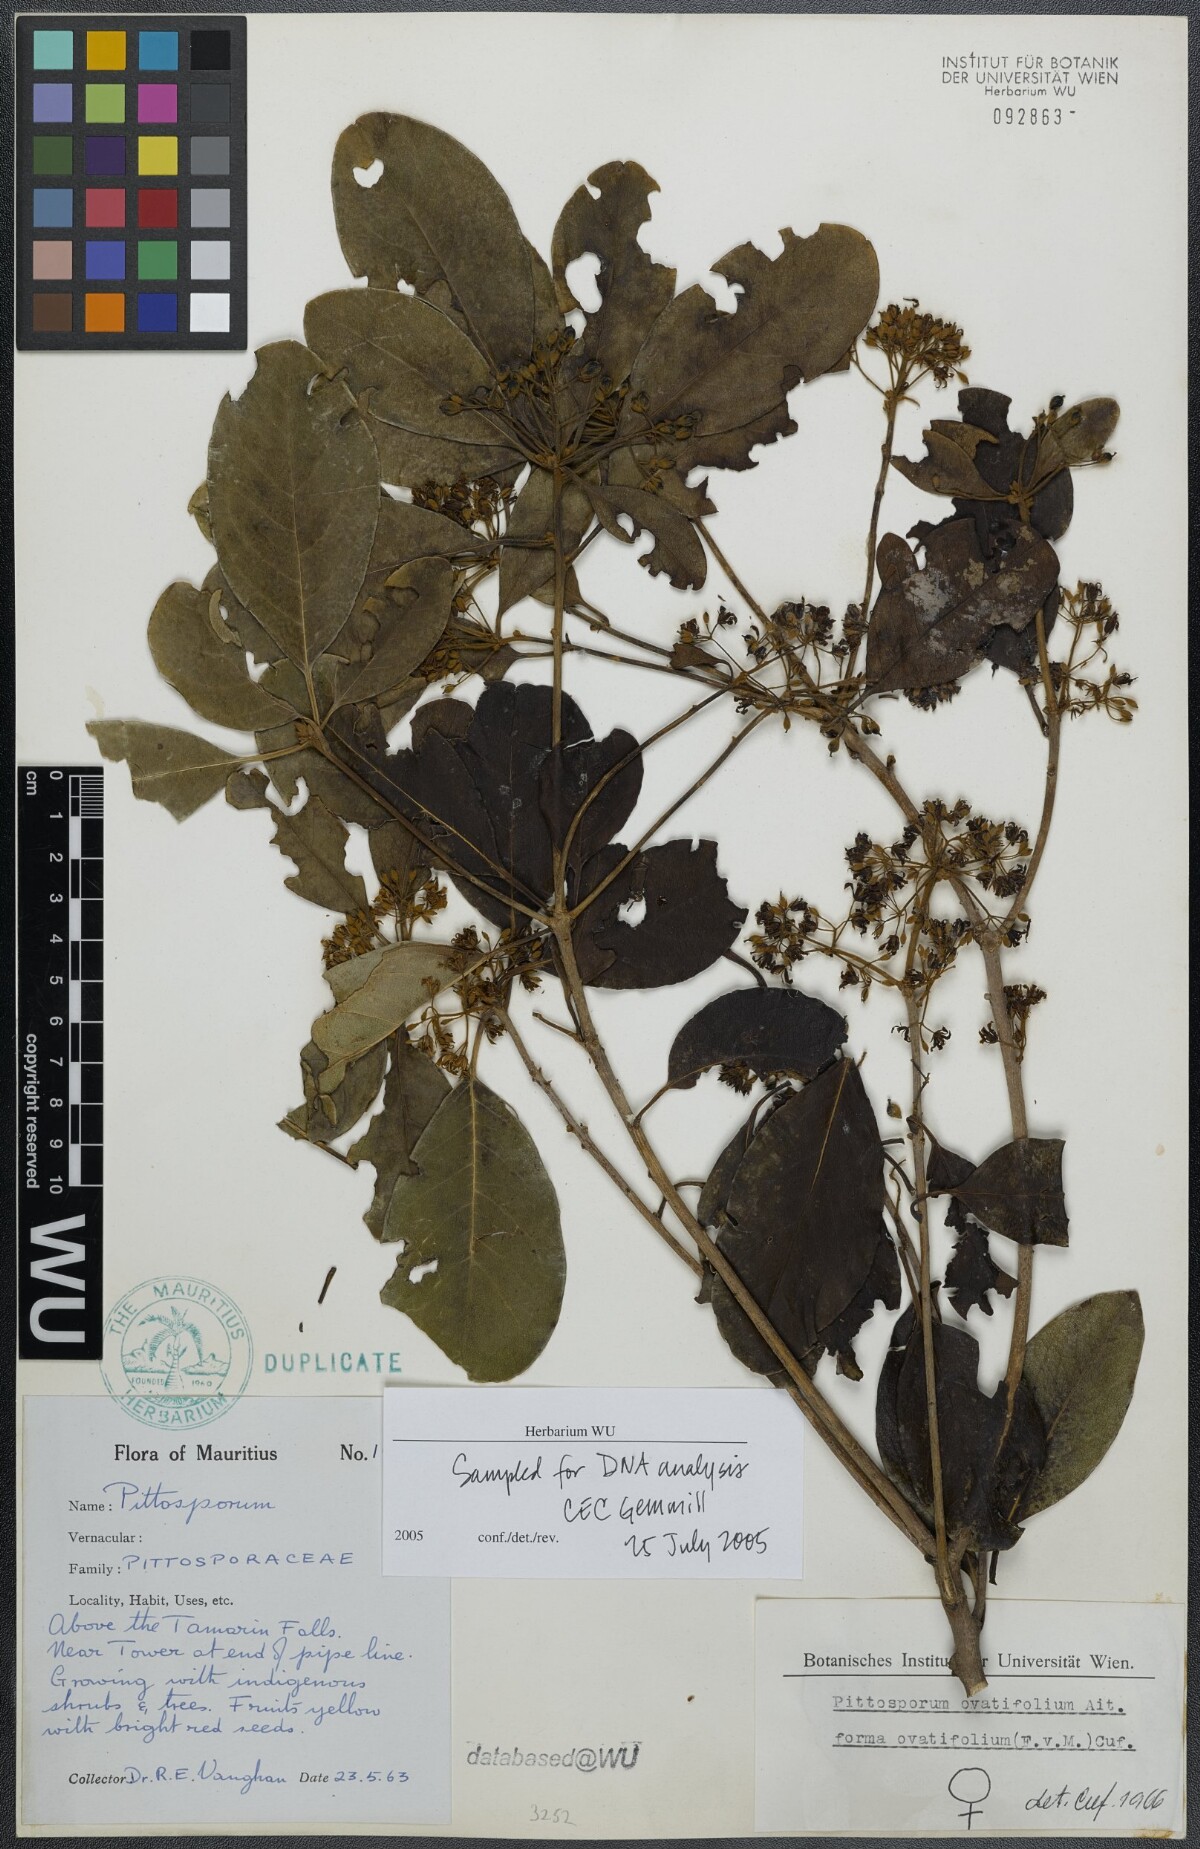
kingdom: Plantae
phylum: Tracheophyta
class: Magnoliopsida
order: Apiales
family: Pittosporaceae
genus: Pittosporum
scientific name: Pittosporum ferrugineum
